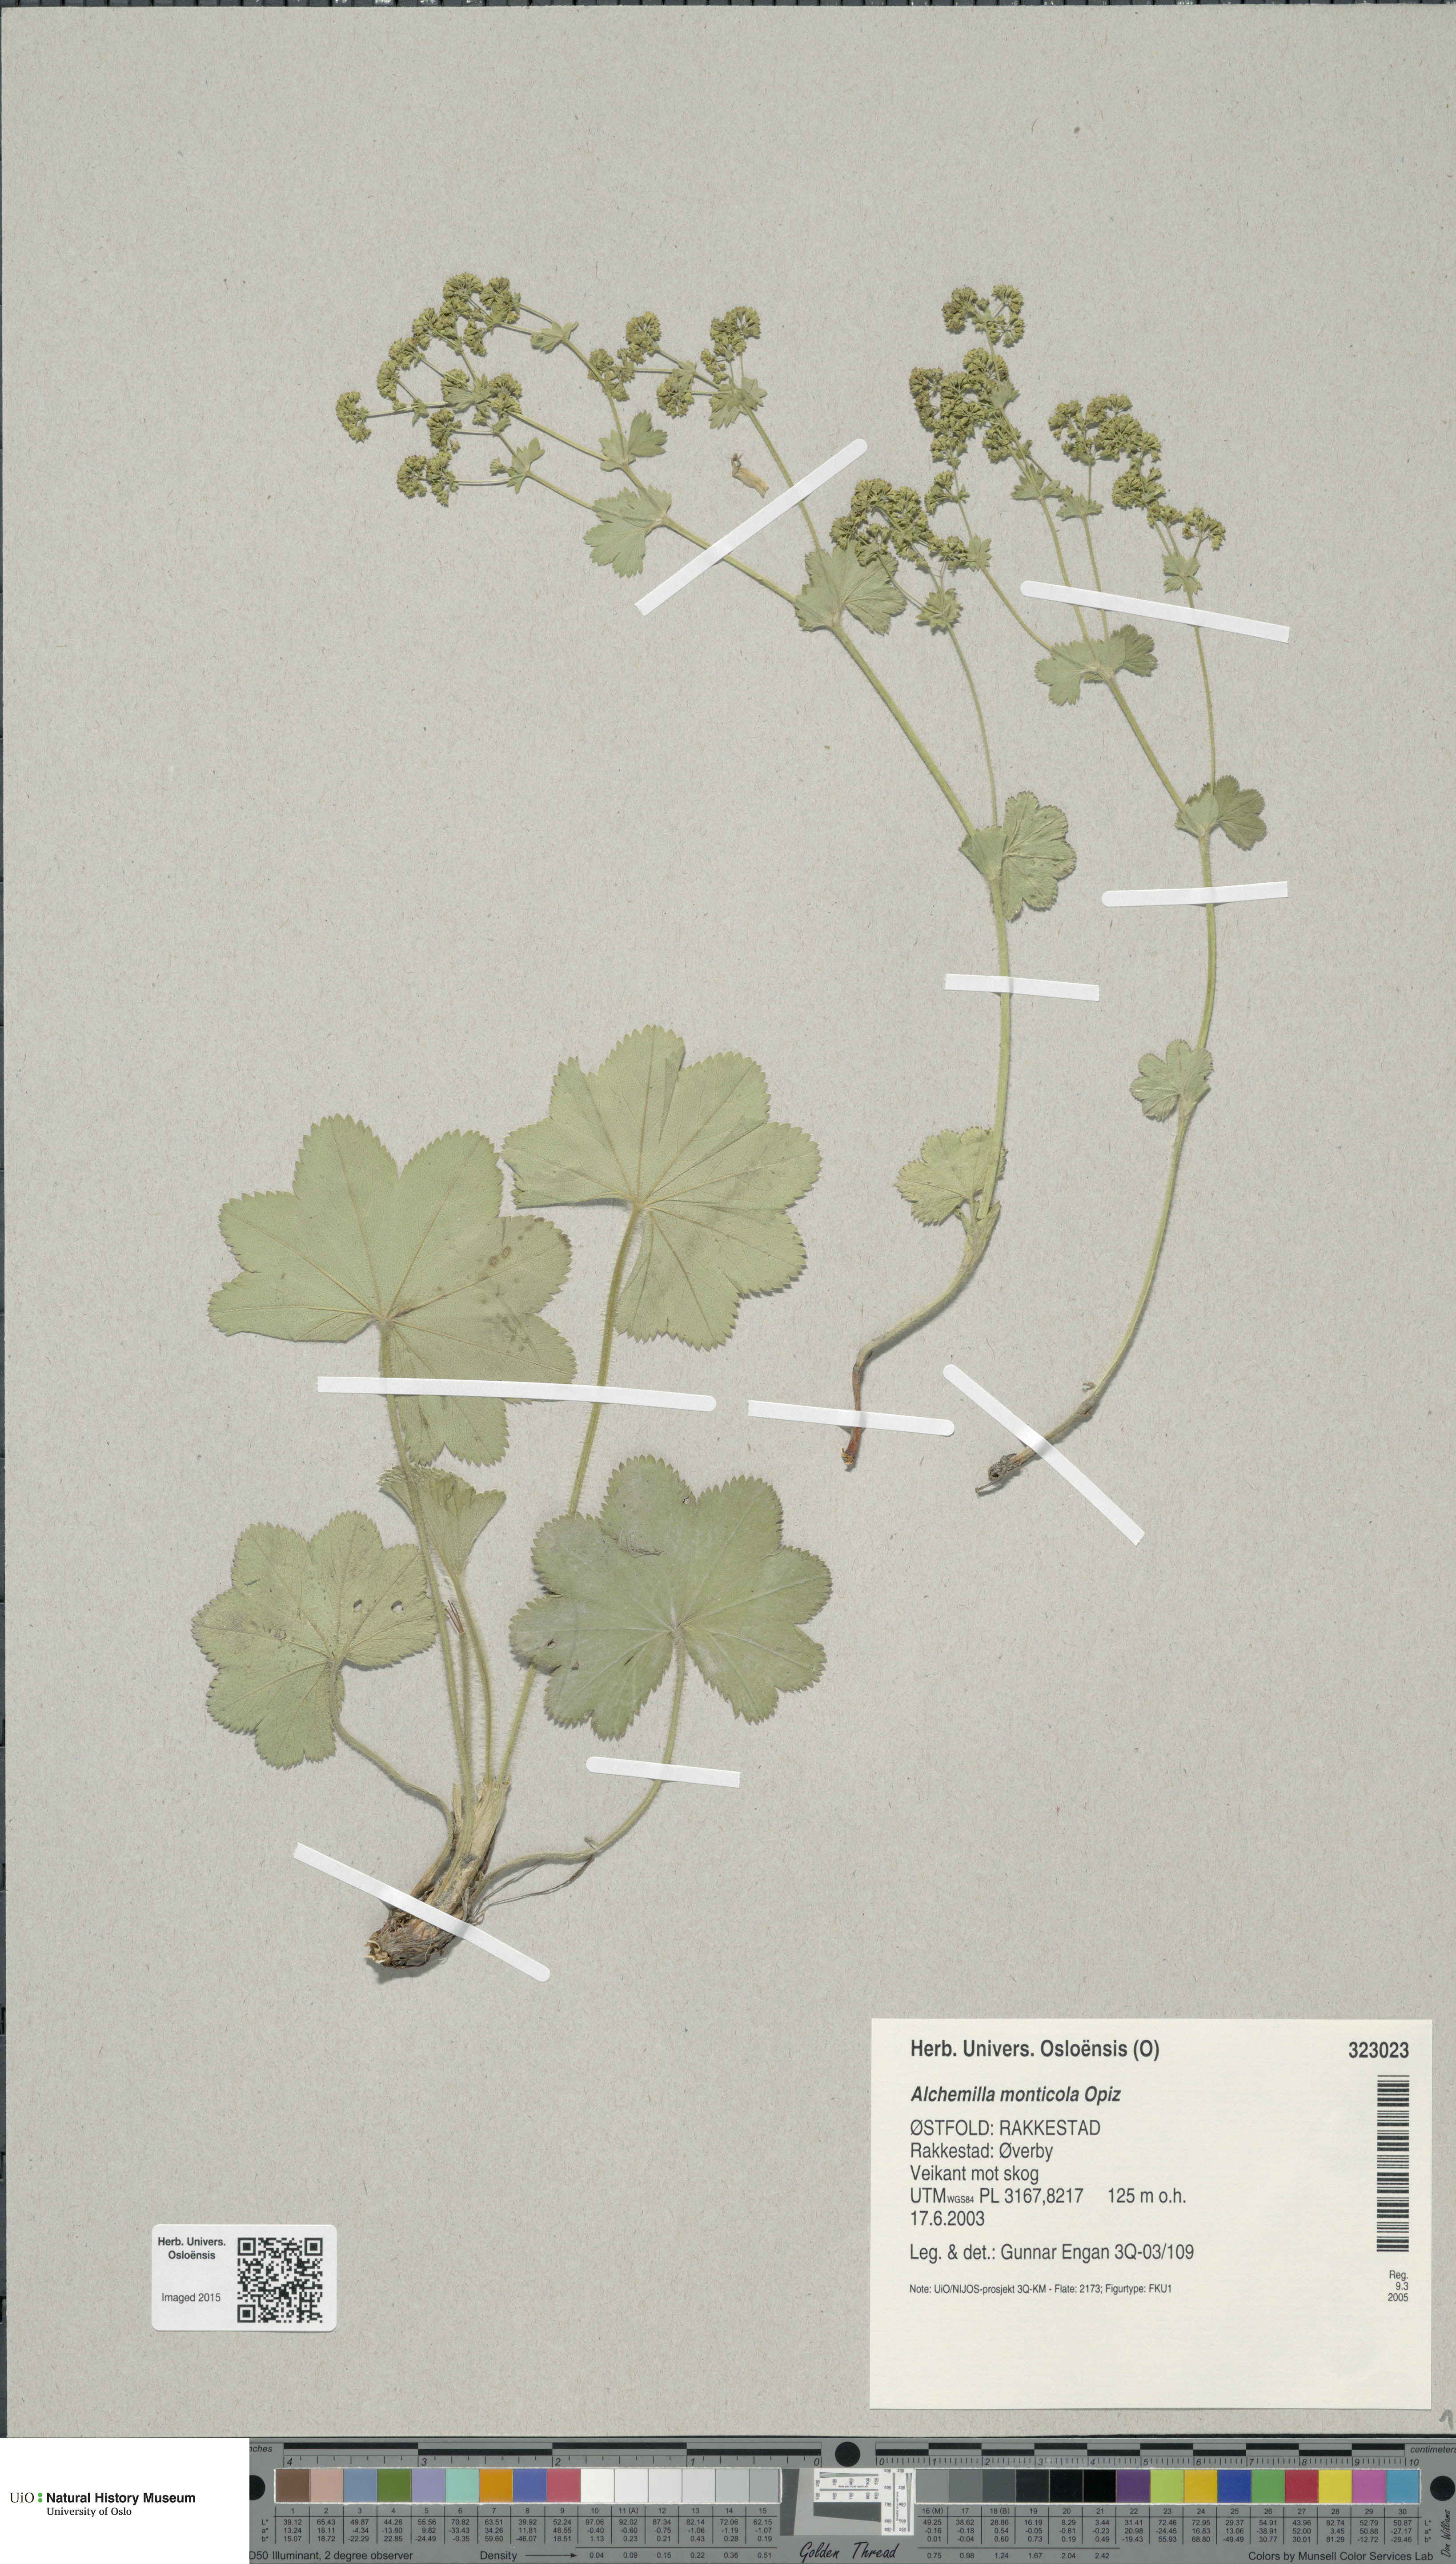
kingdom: Plantae
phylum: Tracheophyta
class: Magnoliopsida
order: Rosales
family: Rosaceae
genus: Alchemilla
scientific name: Alchemilla monticola
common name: Hairy lady's mantle
